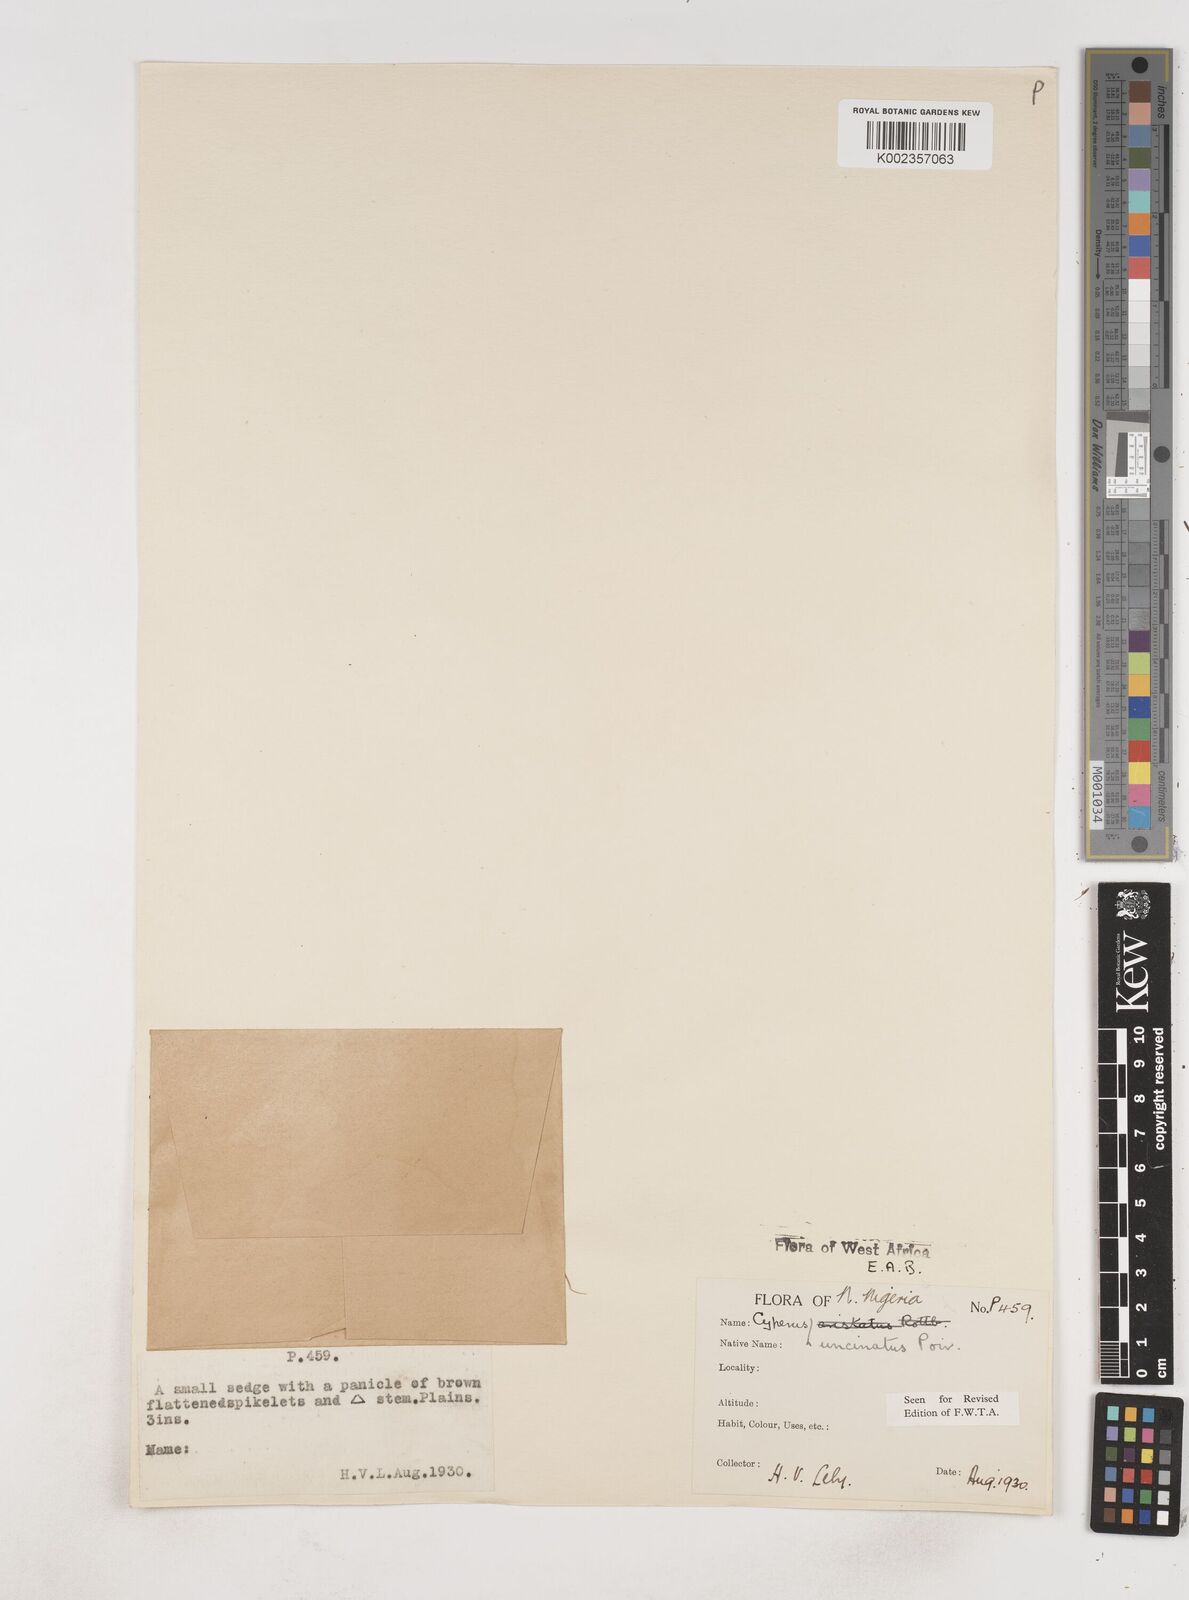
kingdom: Plantae
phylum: Tracheophyta
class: Liliopsida
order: Poales
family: Cyperaceae
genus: Cyperus
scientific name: Cyperus
